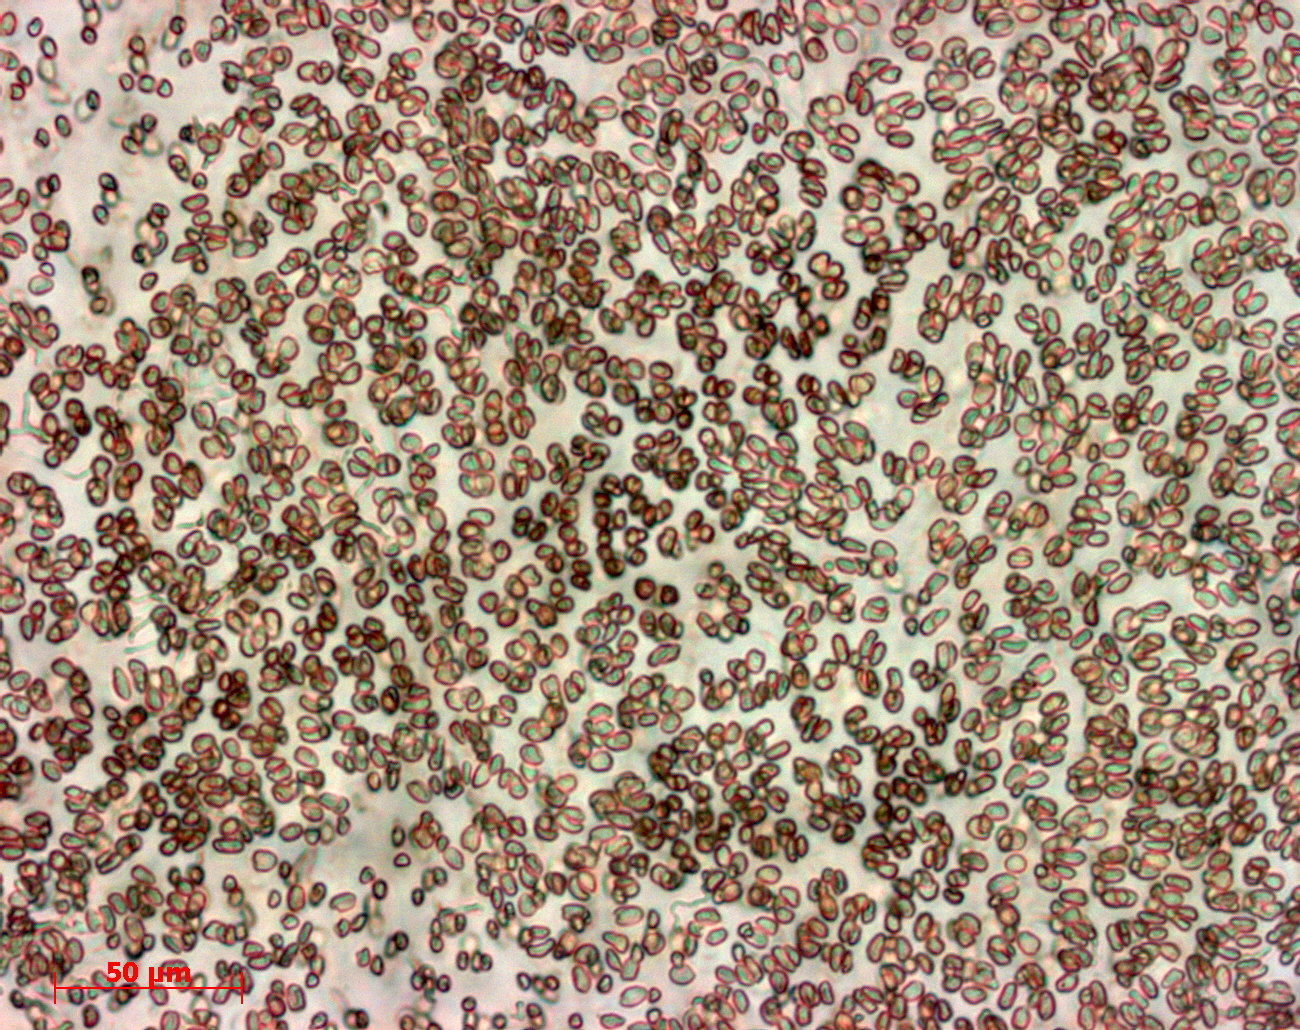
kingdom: Plantae
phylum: Rhodophyta
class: Florideophyceae
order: Halymeniales
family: Halymeniaceae
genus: Halymenia
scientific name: Halymenia
